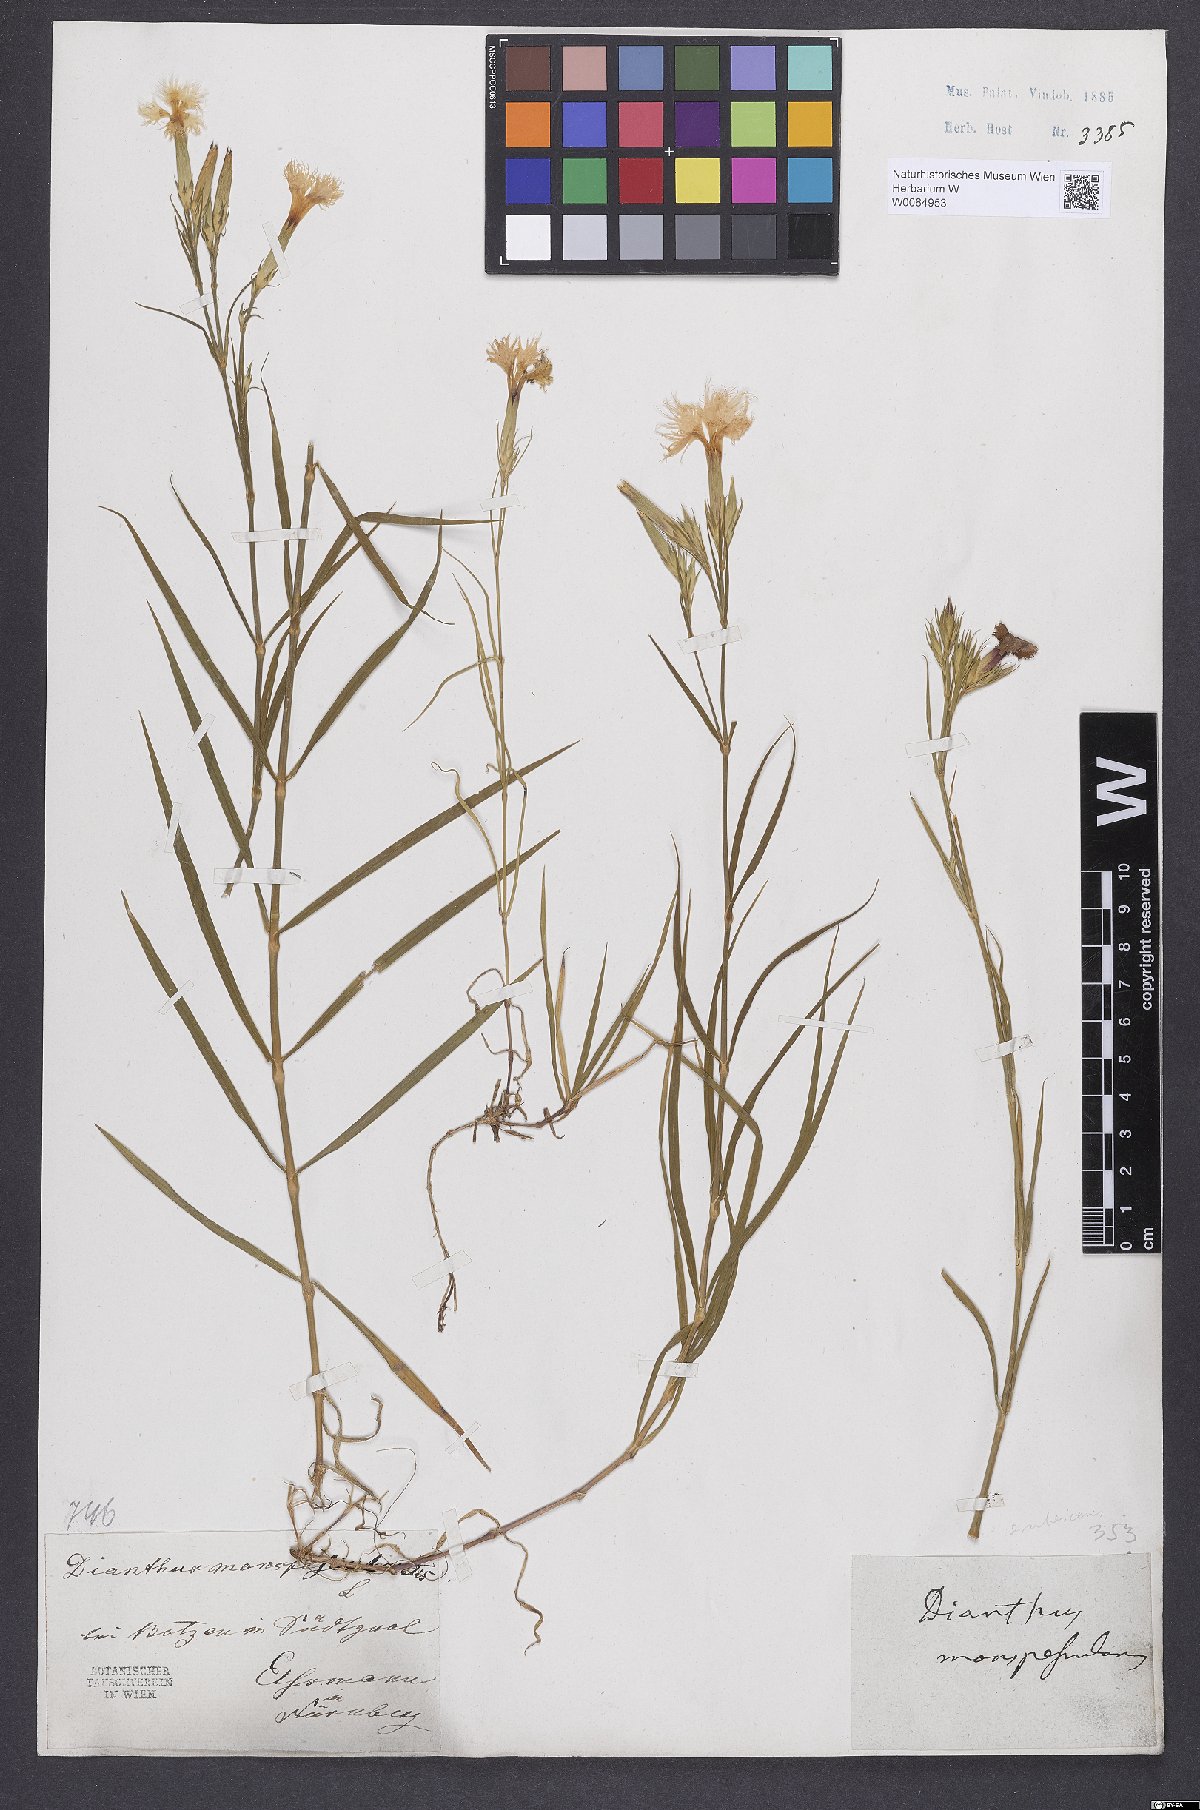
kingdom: Plantae
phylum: Tracheophyta
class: Magnoliopsida
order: Caryophyllales
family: Caryophyllaceae
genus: Dianthus
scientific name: Dianthus hyssopifolius
